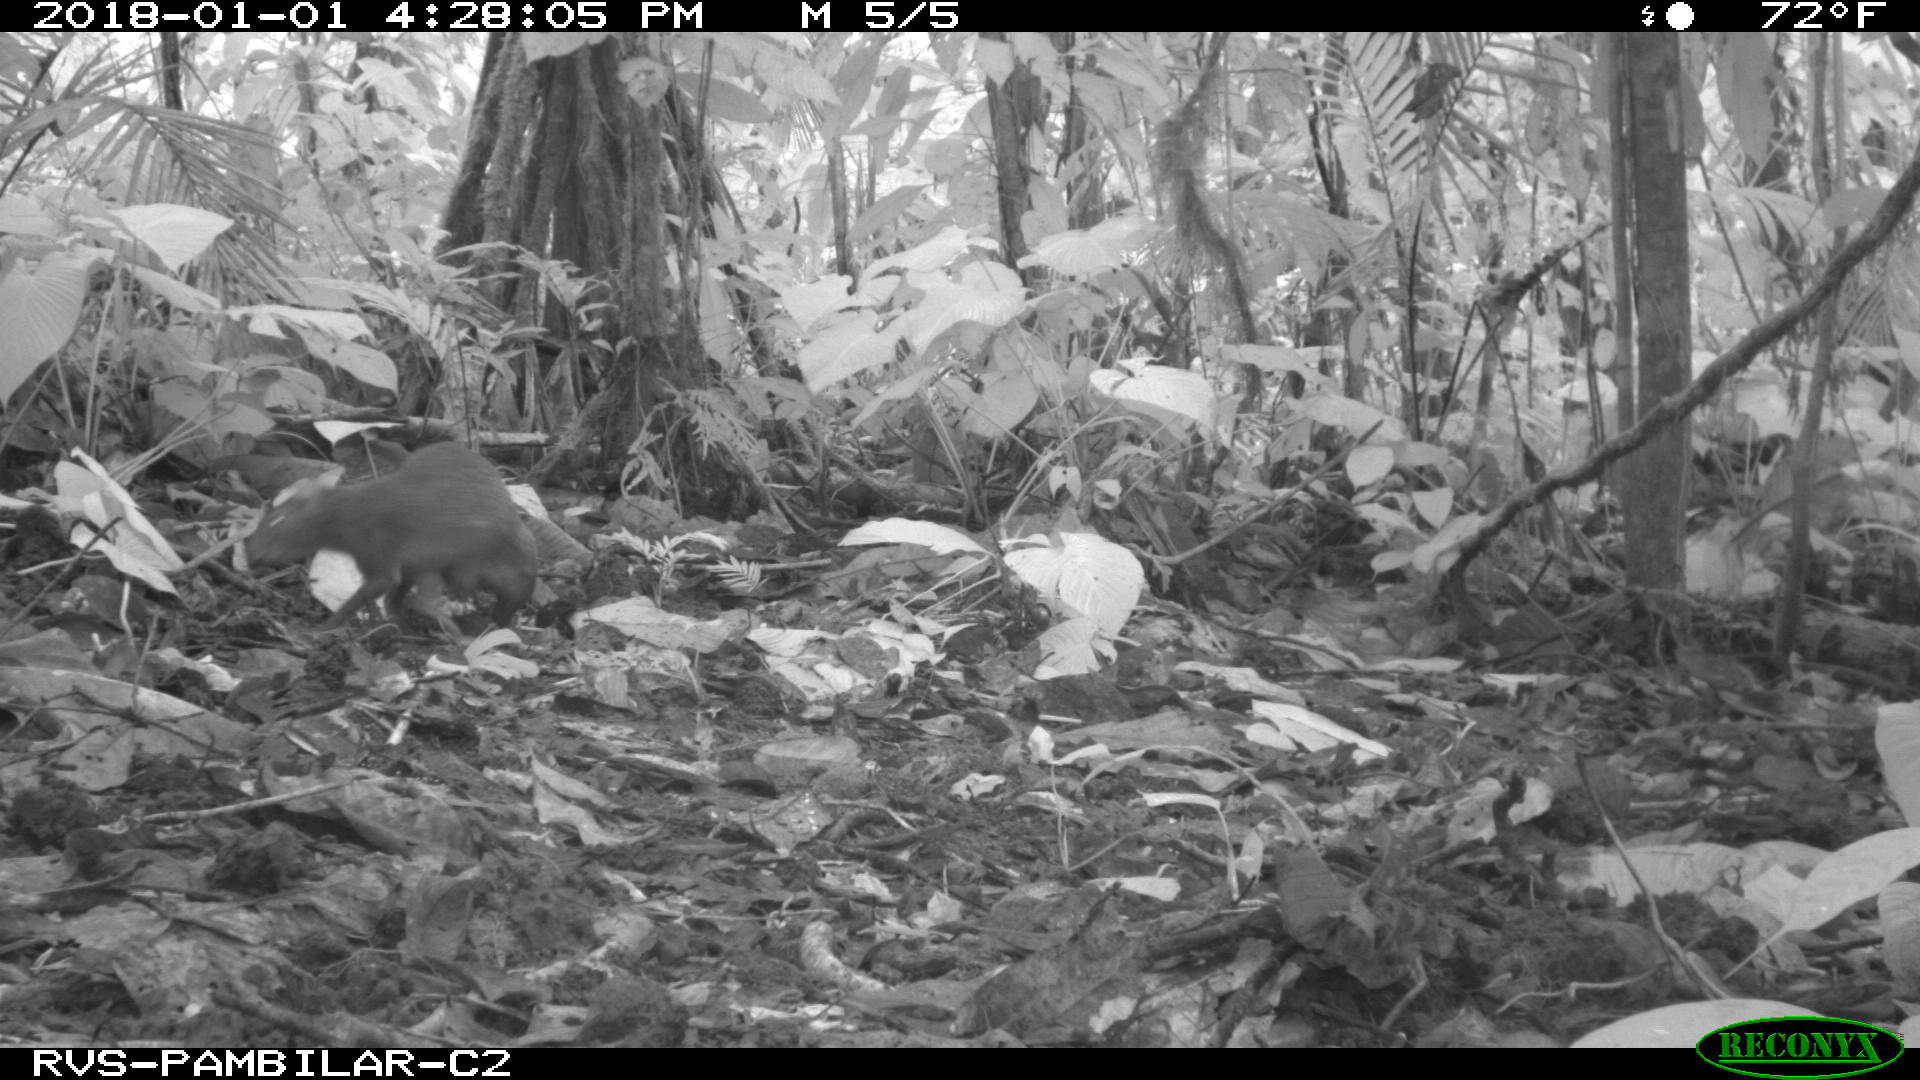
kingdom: Animalia
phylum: Chordata
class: Mammalia
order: Rodentia
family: Dasyproctidae
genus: Dasyprocta
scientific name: Dasyprocta punctata
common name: Central american agouti
